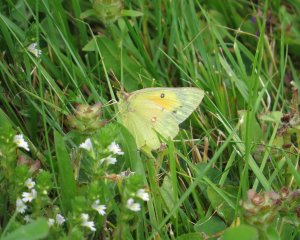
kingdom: Animalia
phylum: Arthropoda
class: Insecta
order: Lepidoptera
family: Pieridae
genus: Colias
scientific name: Colias eurytheme
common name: Orange Sulphur
